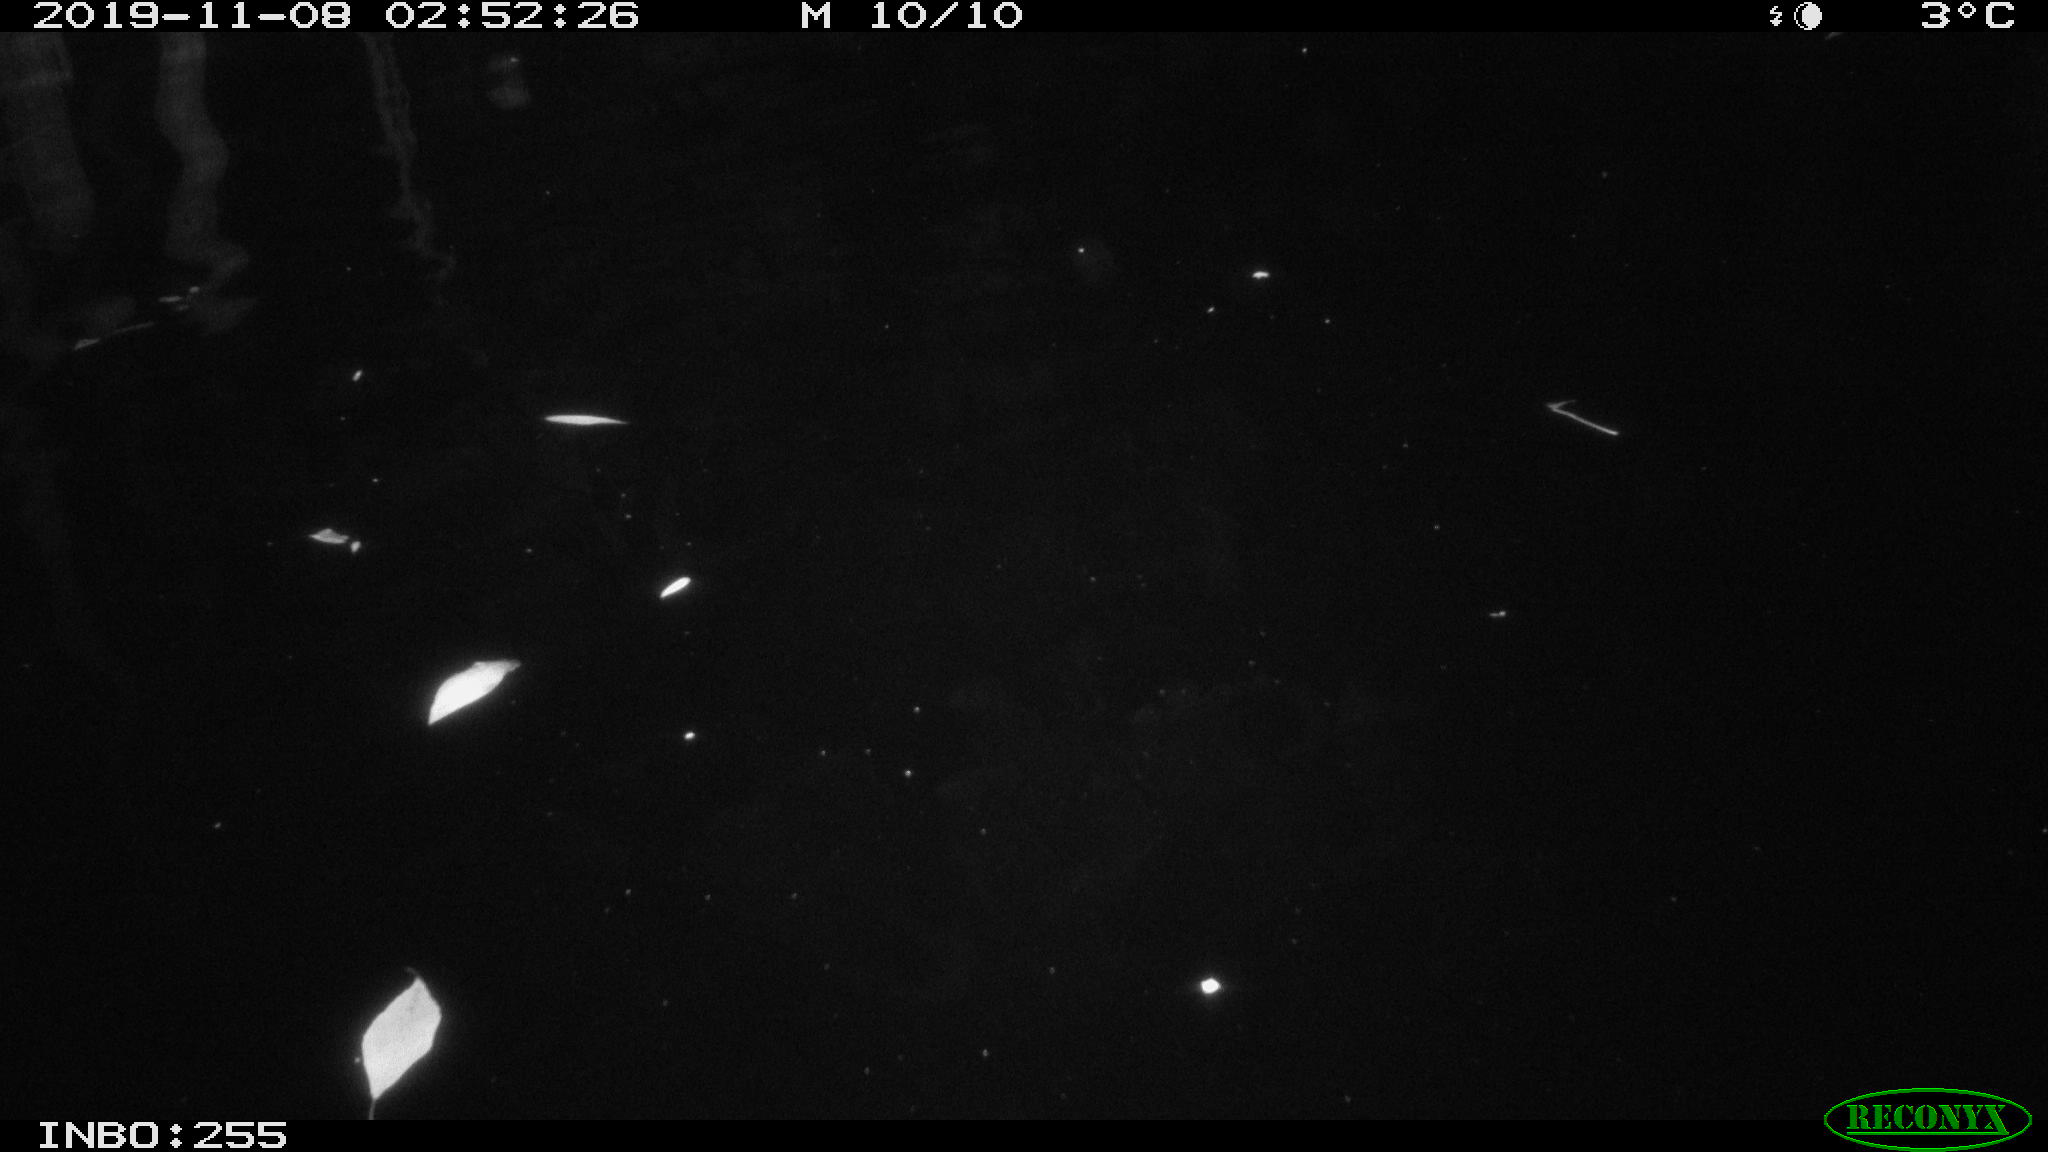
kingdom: Animalia
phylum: Chordata
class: Mammalia
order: Rodentia
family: Cricetidae
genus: Ondatra
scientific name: Ondatra zibethicus
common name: Muskrat
